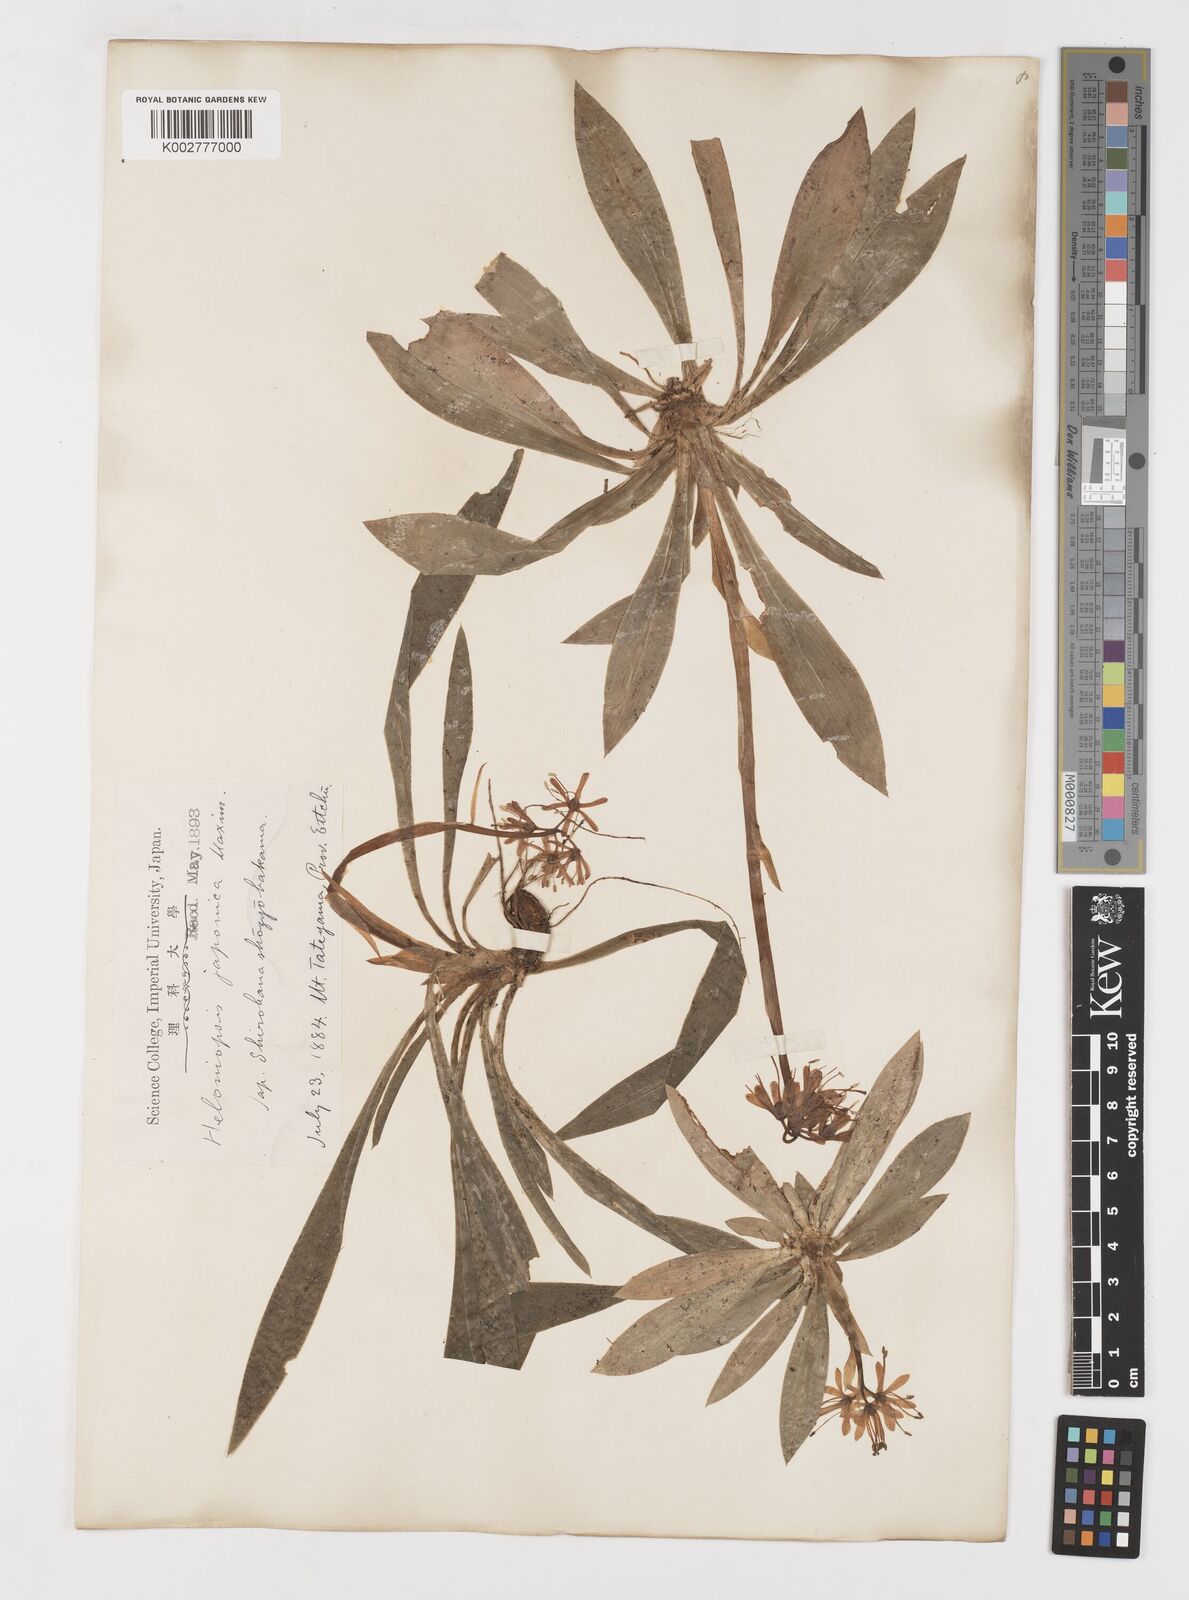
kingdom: Plantae
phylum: Tracheophyta
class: Liliopsida
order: Liliales
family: Melanthiaceae
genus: Helonias
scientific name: Helonias orientalis
